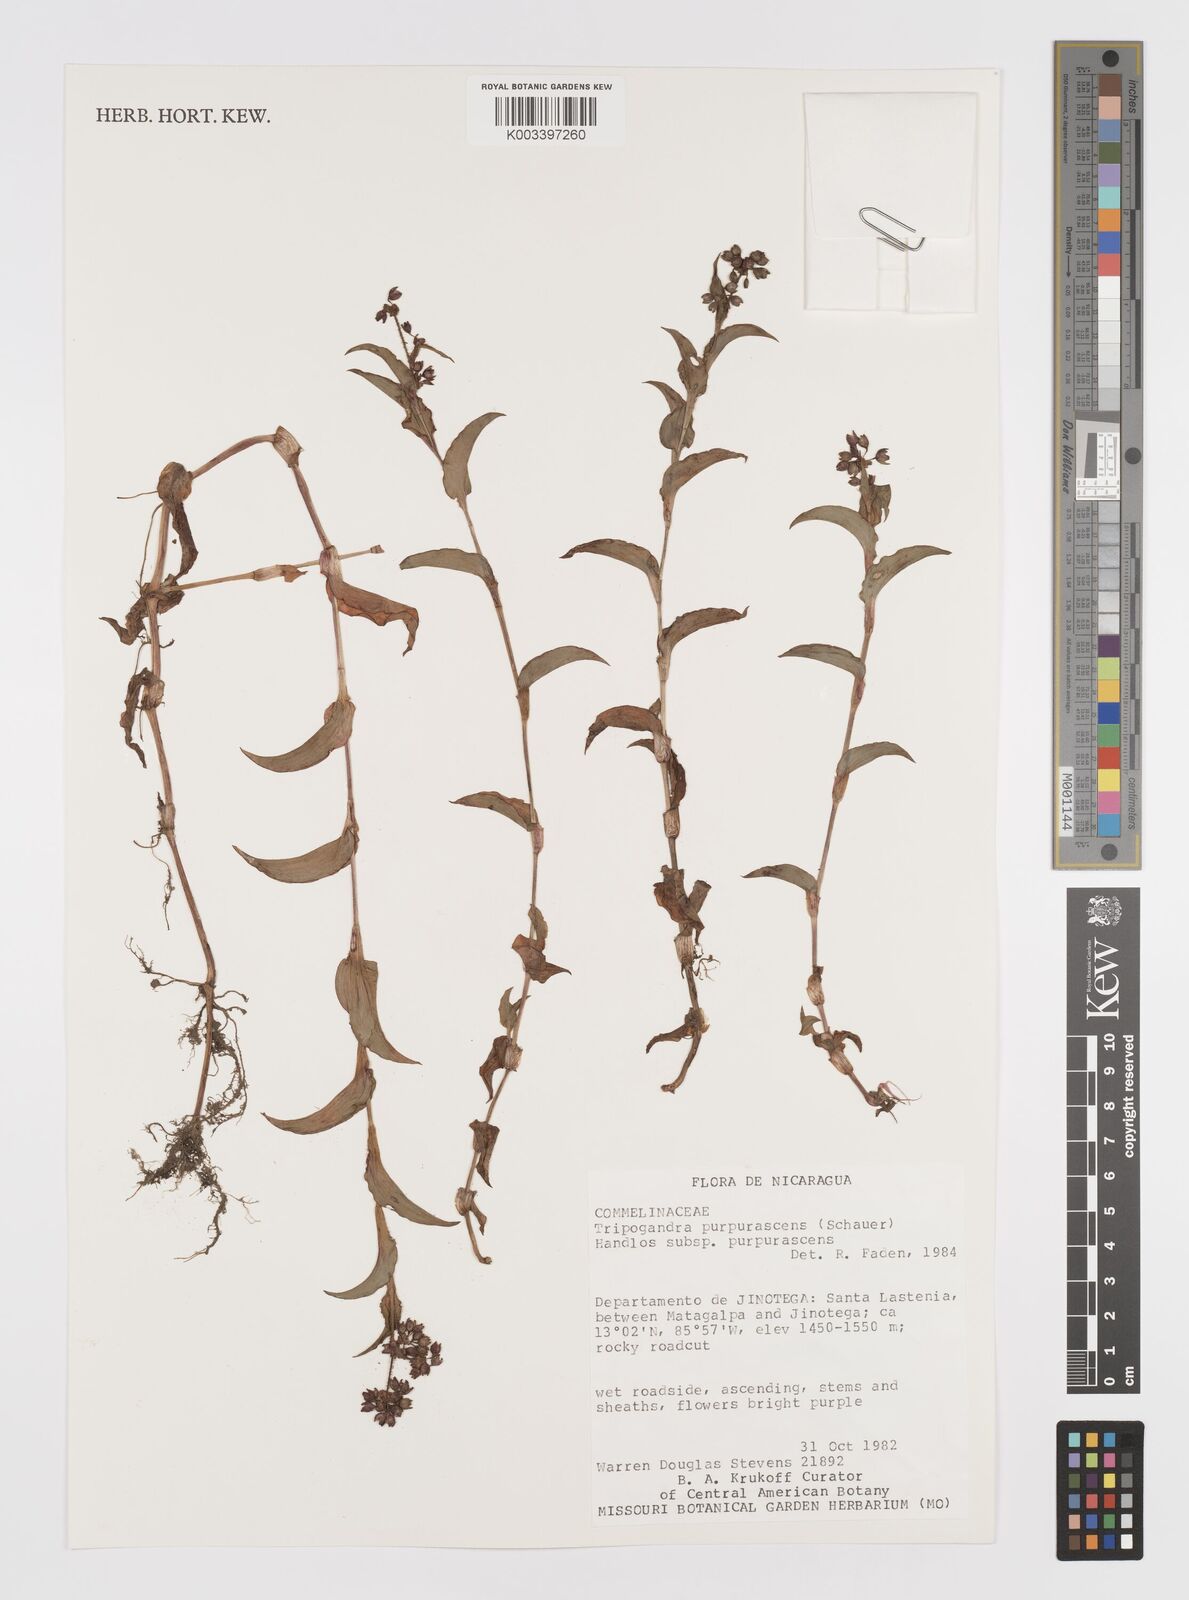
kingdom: Plantae
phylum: Tracheophyta
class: Liliopsida
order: Commelinales
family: Commelinaceae
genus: Callisia
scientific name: Callisia purpurascens
